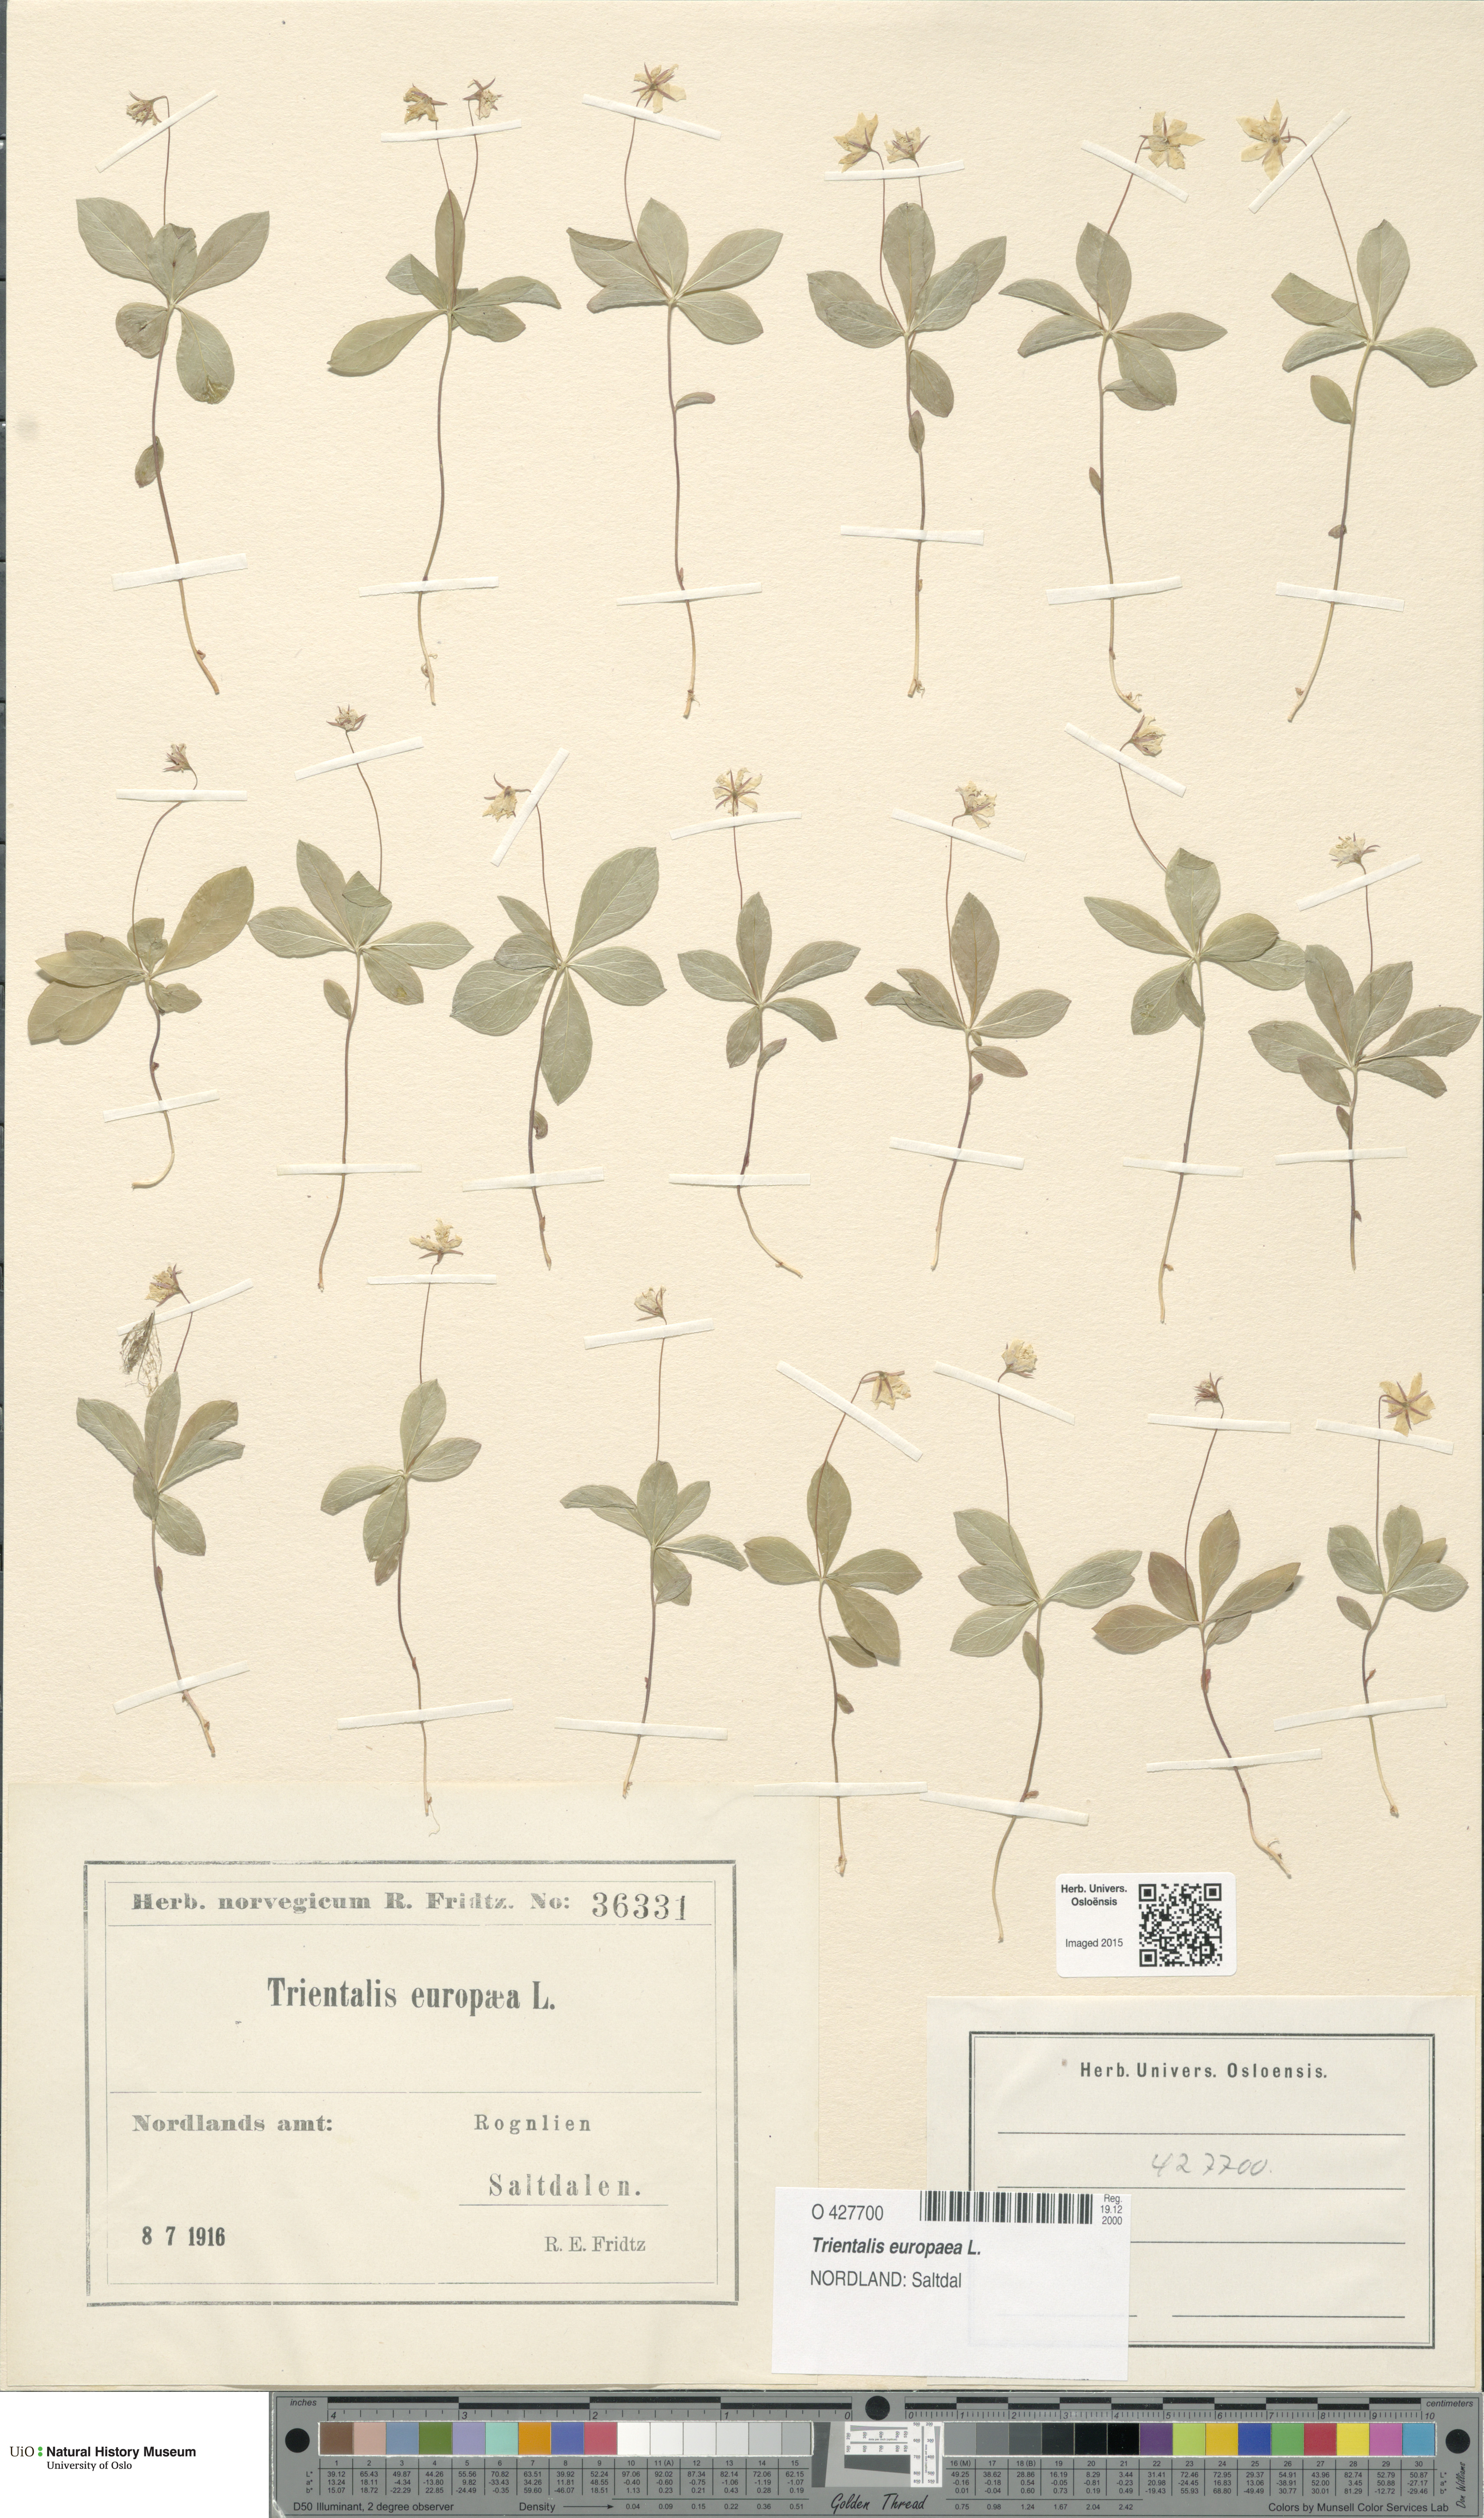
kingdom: Plantae
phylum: Tracheophyta
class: Magnoliopsida
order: Ericales
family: Primulaceae
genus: Lysimachia
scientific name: Lysimachia europaea
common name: Arctic starflower
